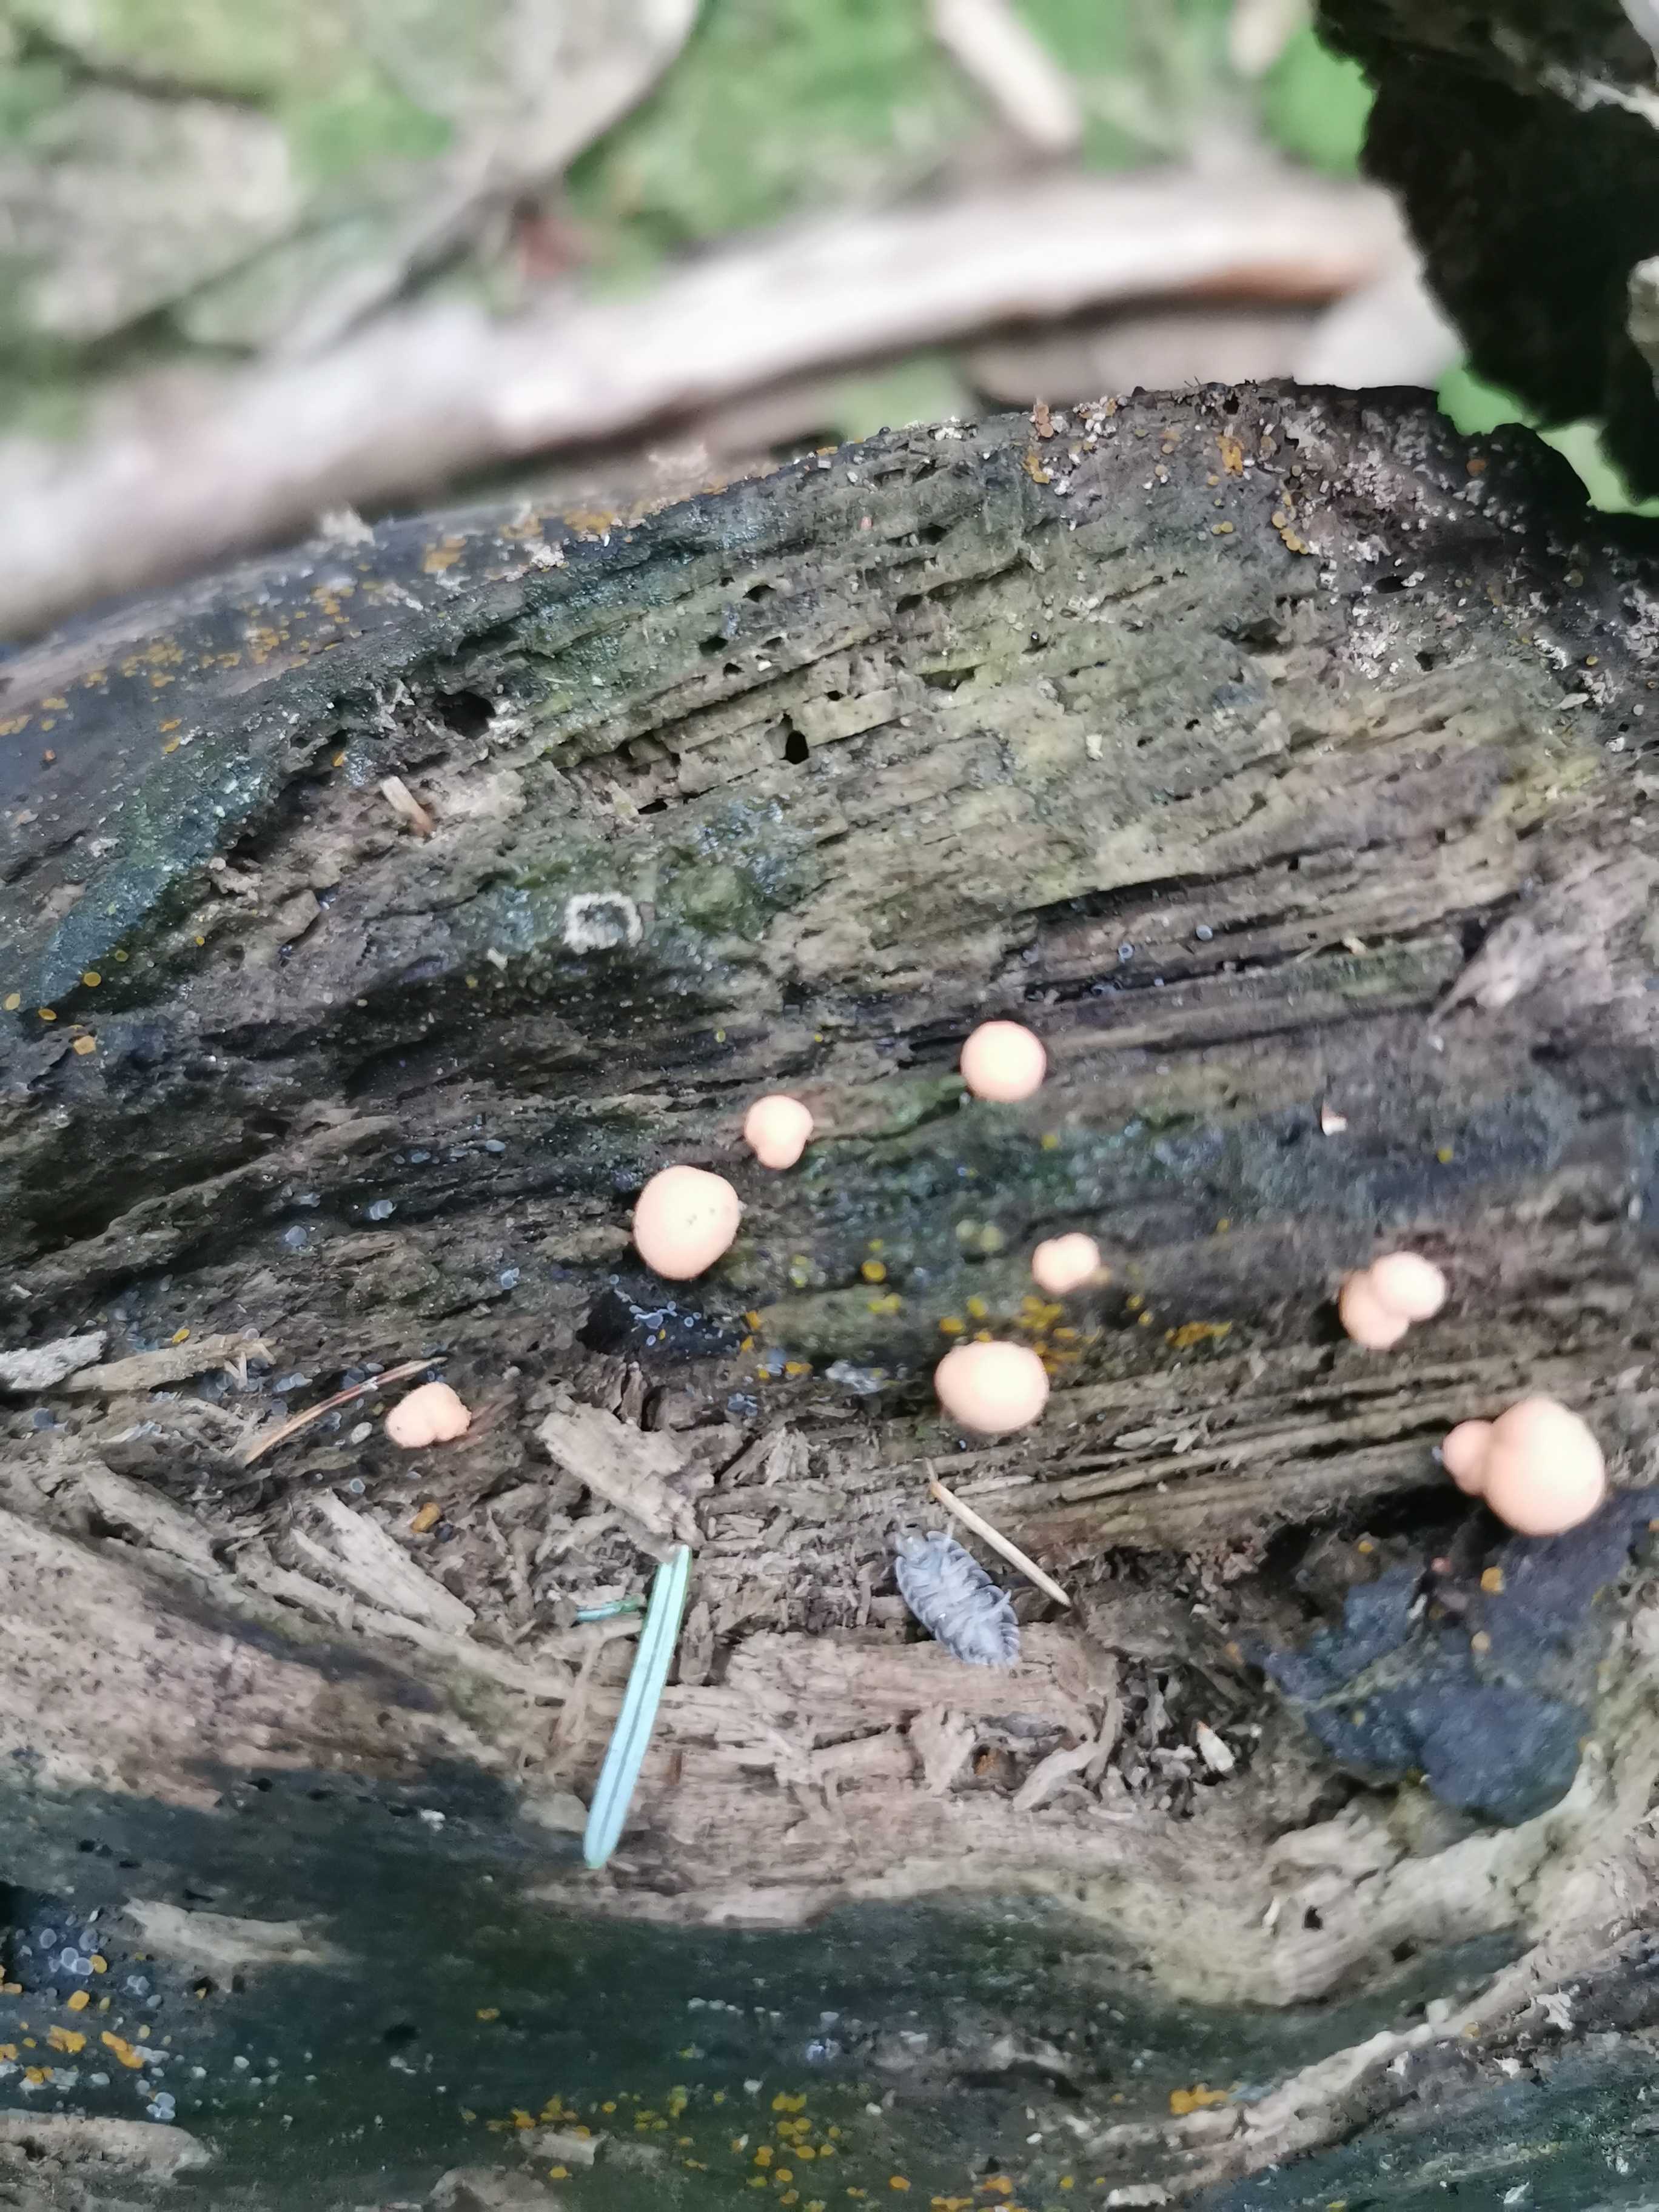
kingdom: Protozoa
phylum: Mycetozoa
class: Myxomycetes
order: Cribrariales
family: Tubiferaceae
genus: Lycogala
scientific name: Lycogala epidendrum
